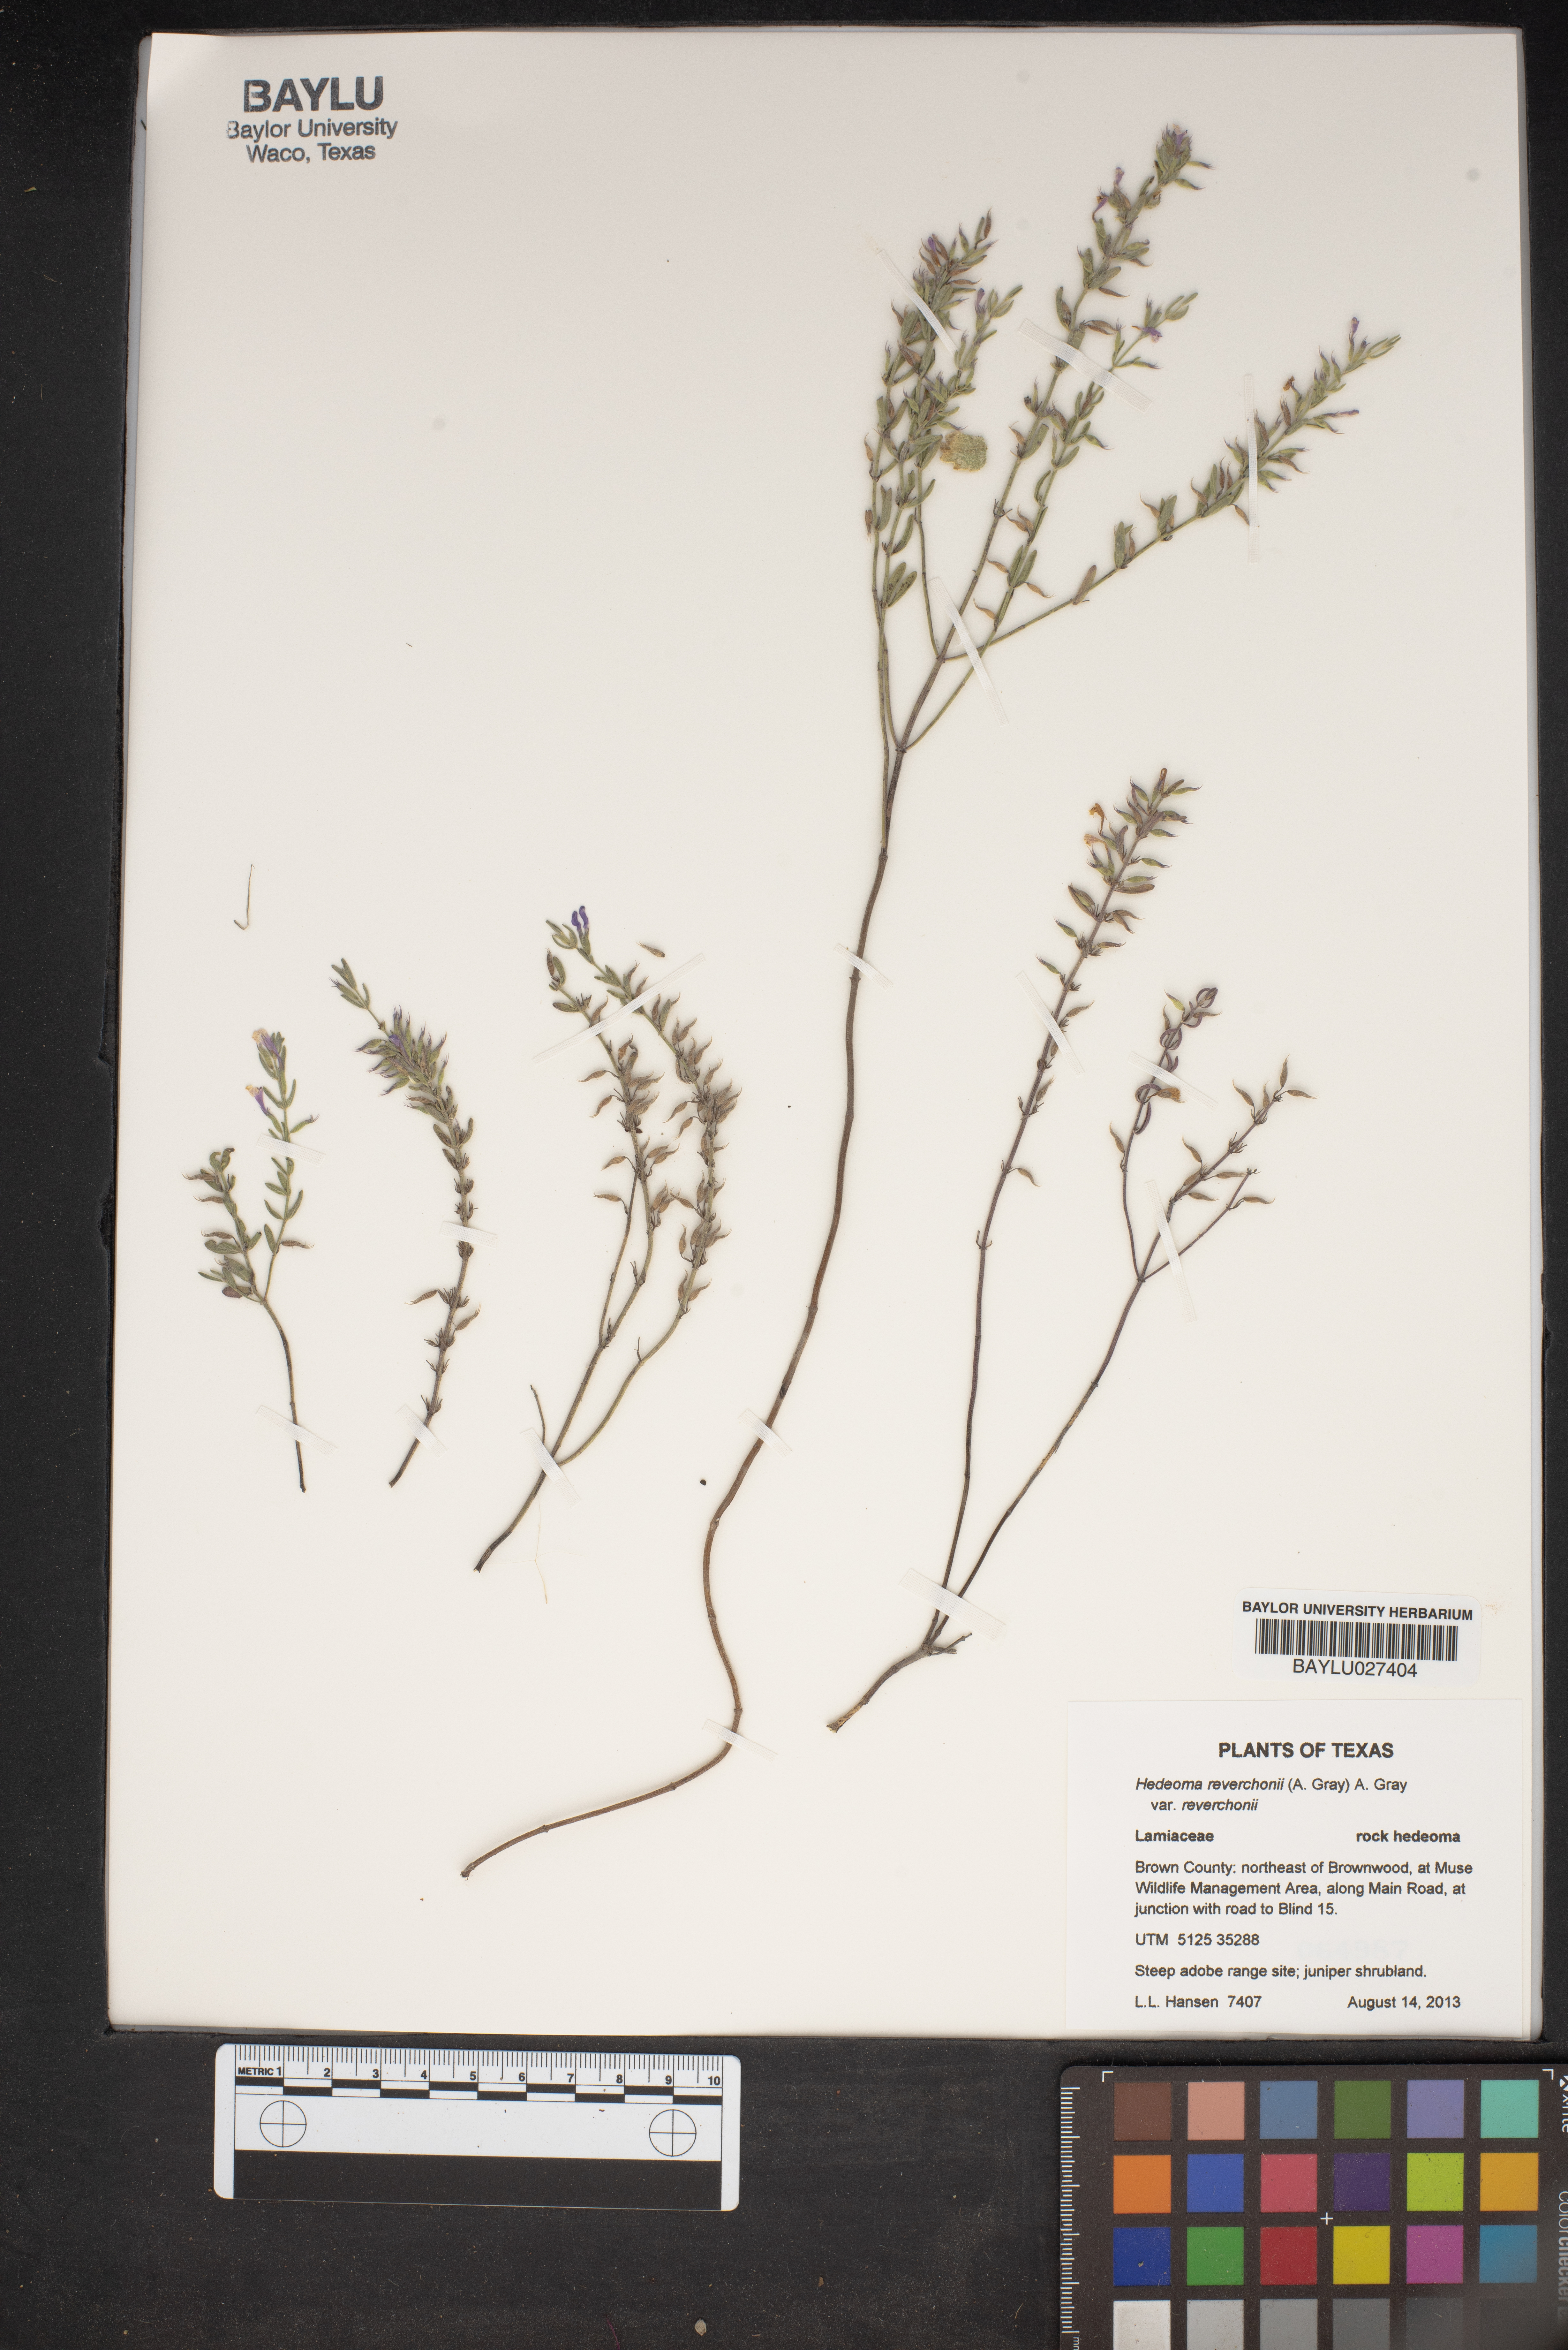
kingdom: Plantae
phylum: Tracheophyta
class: Magnoliopsida
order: Lamiales
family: Lamiaceae
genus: Hedeoma
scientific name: Hedeoma reverchonii
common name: Reverchon's false penny-royal
